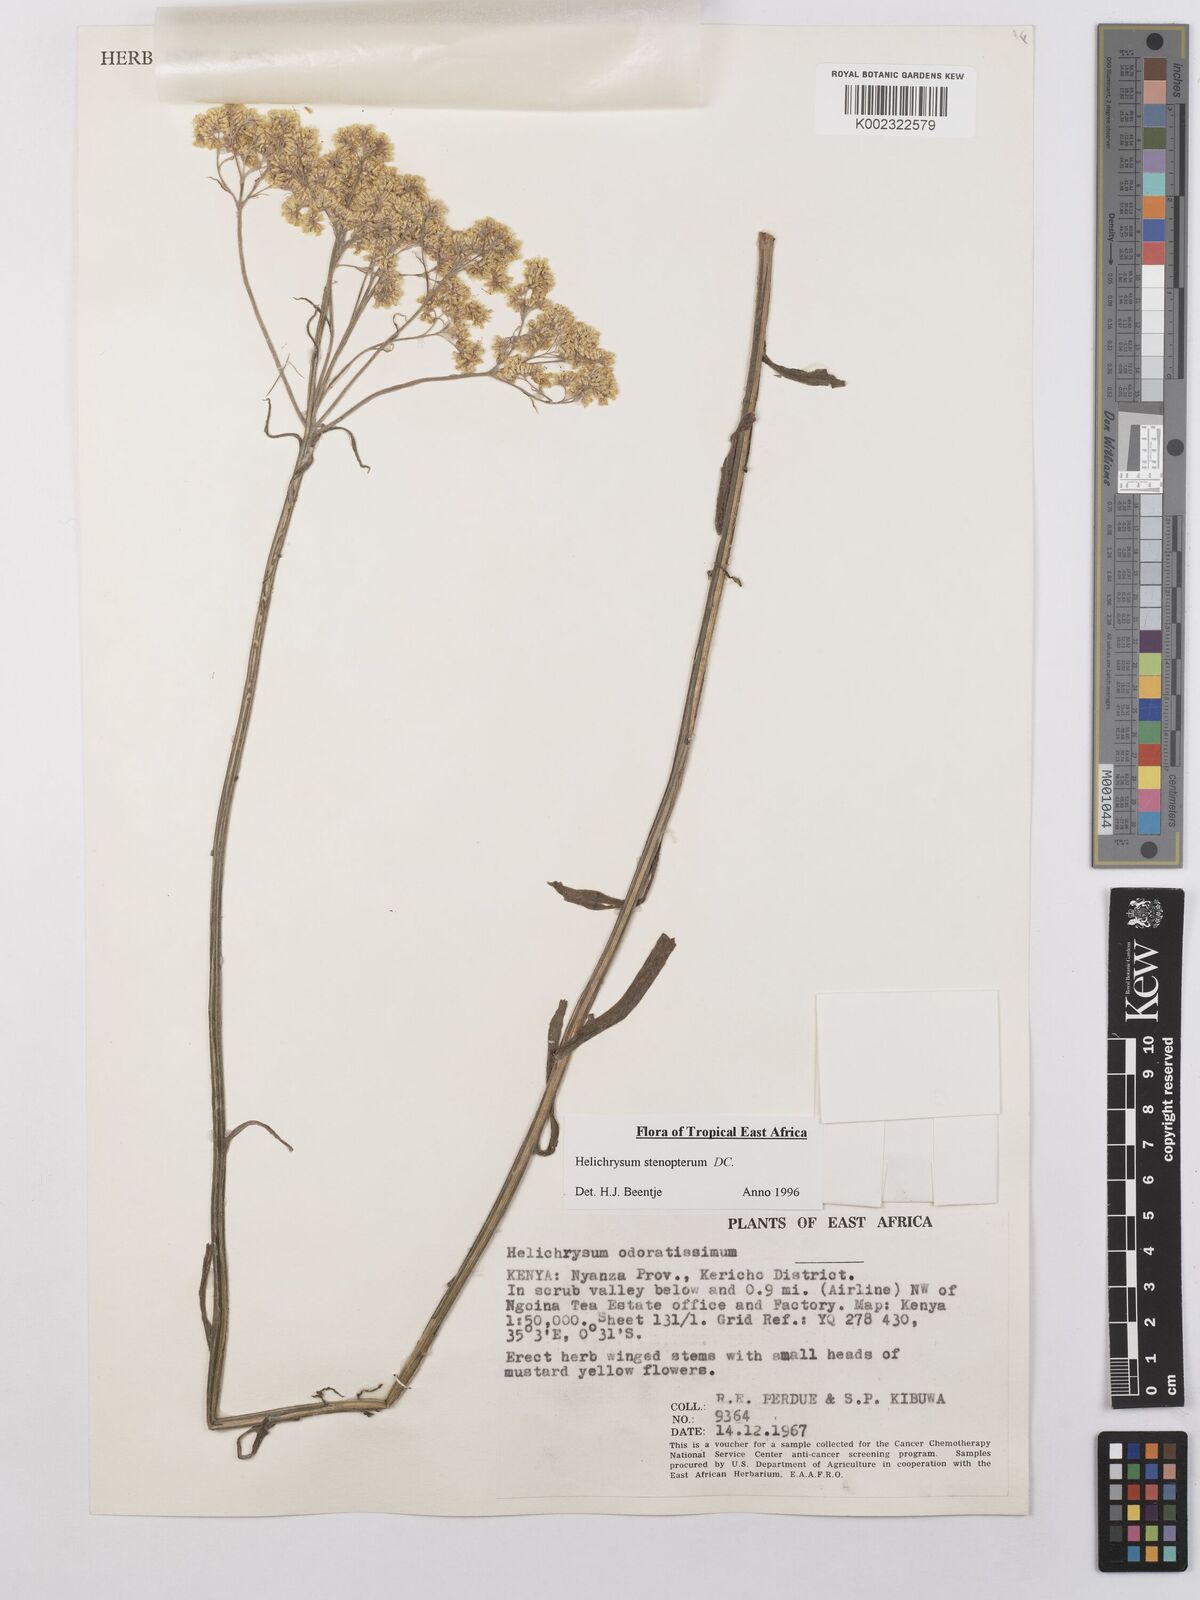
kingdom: Plantae
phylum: Tracheophyta
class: Magnoliopsida
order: Asterales
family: Asteraceae
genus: Helichrysum
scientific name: Helichrysum stenopterum
